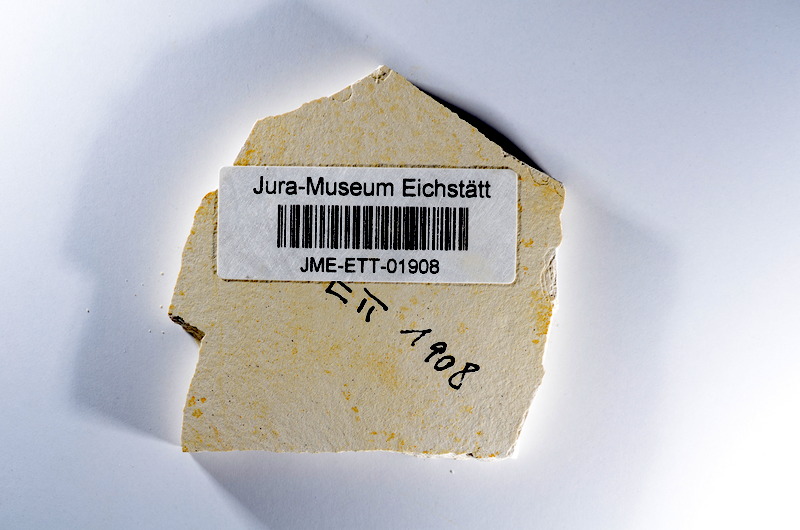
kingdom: Animalia
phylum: Chordata
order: Salmoniformes
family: Orthogonikleithridae
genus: Orthogonikleithrus
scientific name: Orthogonikleithrus hoelli
